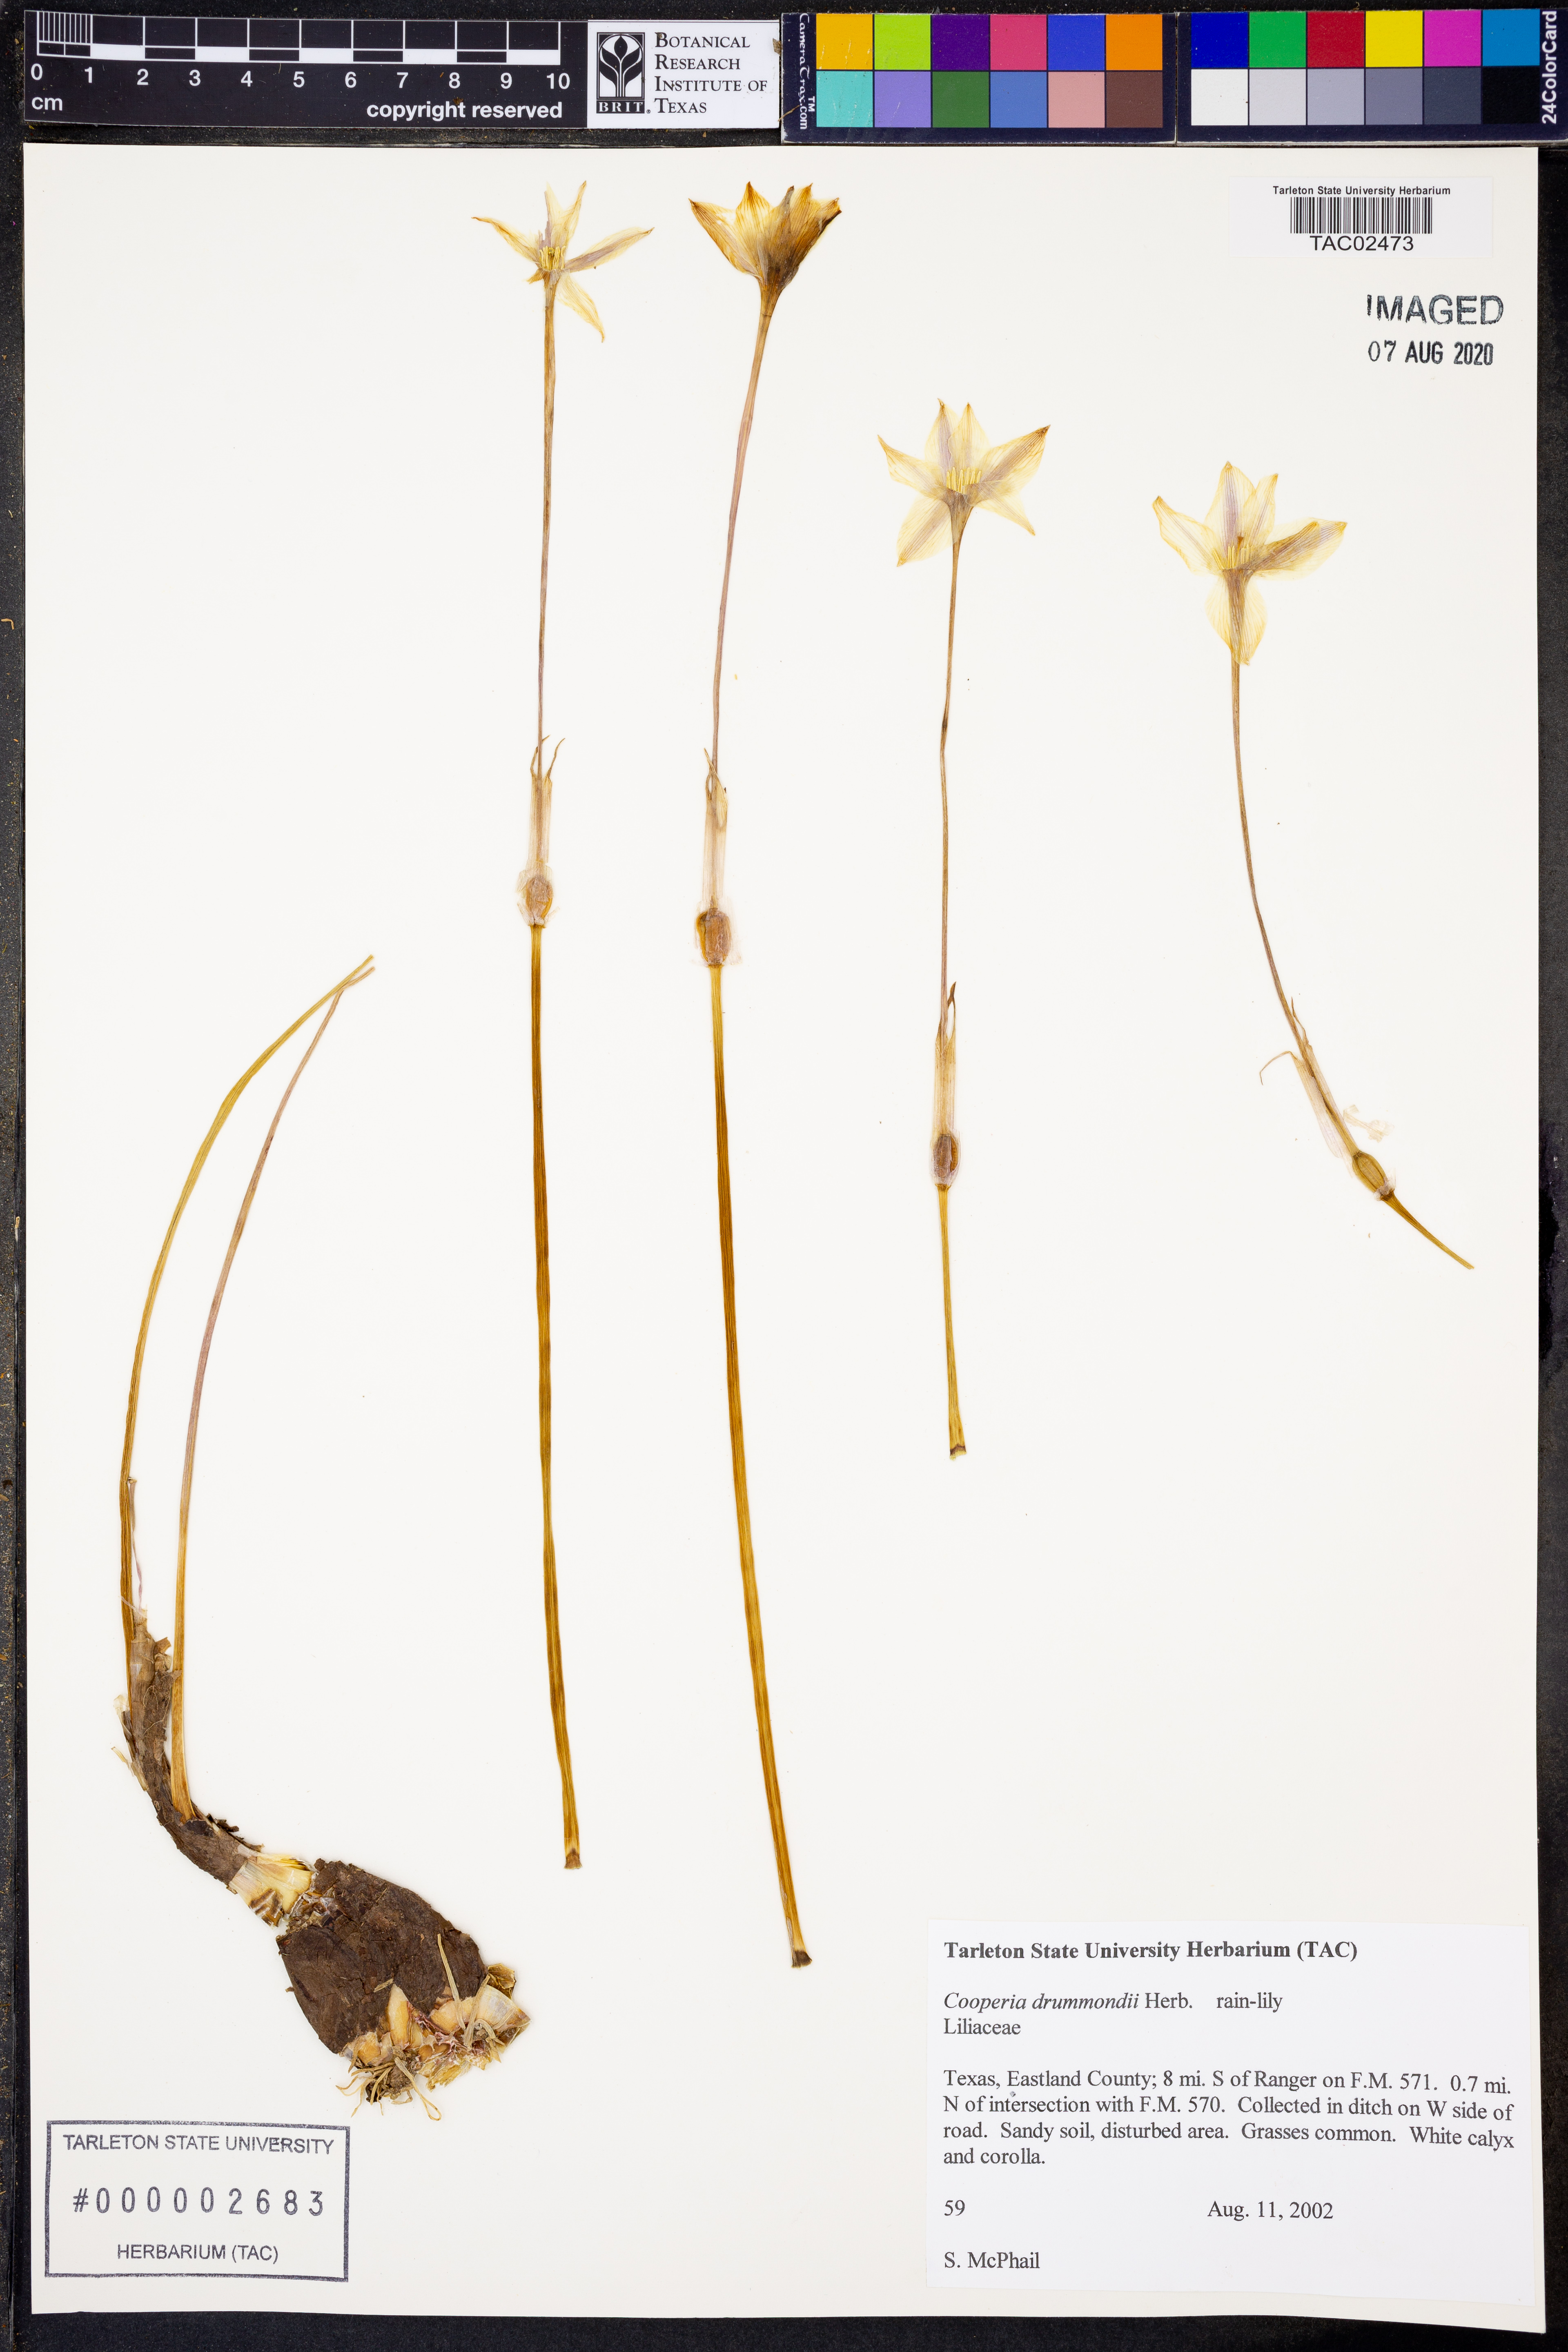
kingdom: Plantae
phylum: Tracheophyta
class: Liliopsida
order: Asparagales
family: Amaryllidaceae
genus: Zephyranthes
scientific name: Zephyranthes chlorosolen
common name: Evening rain-lily
